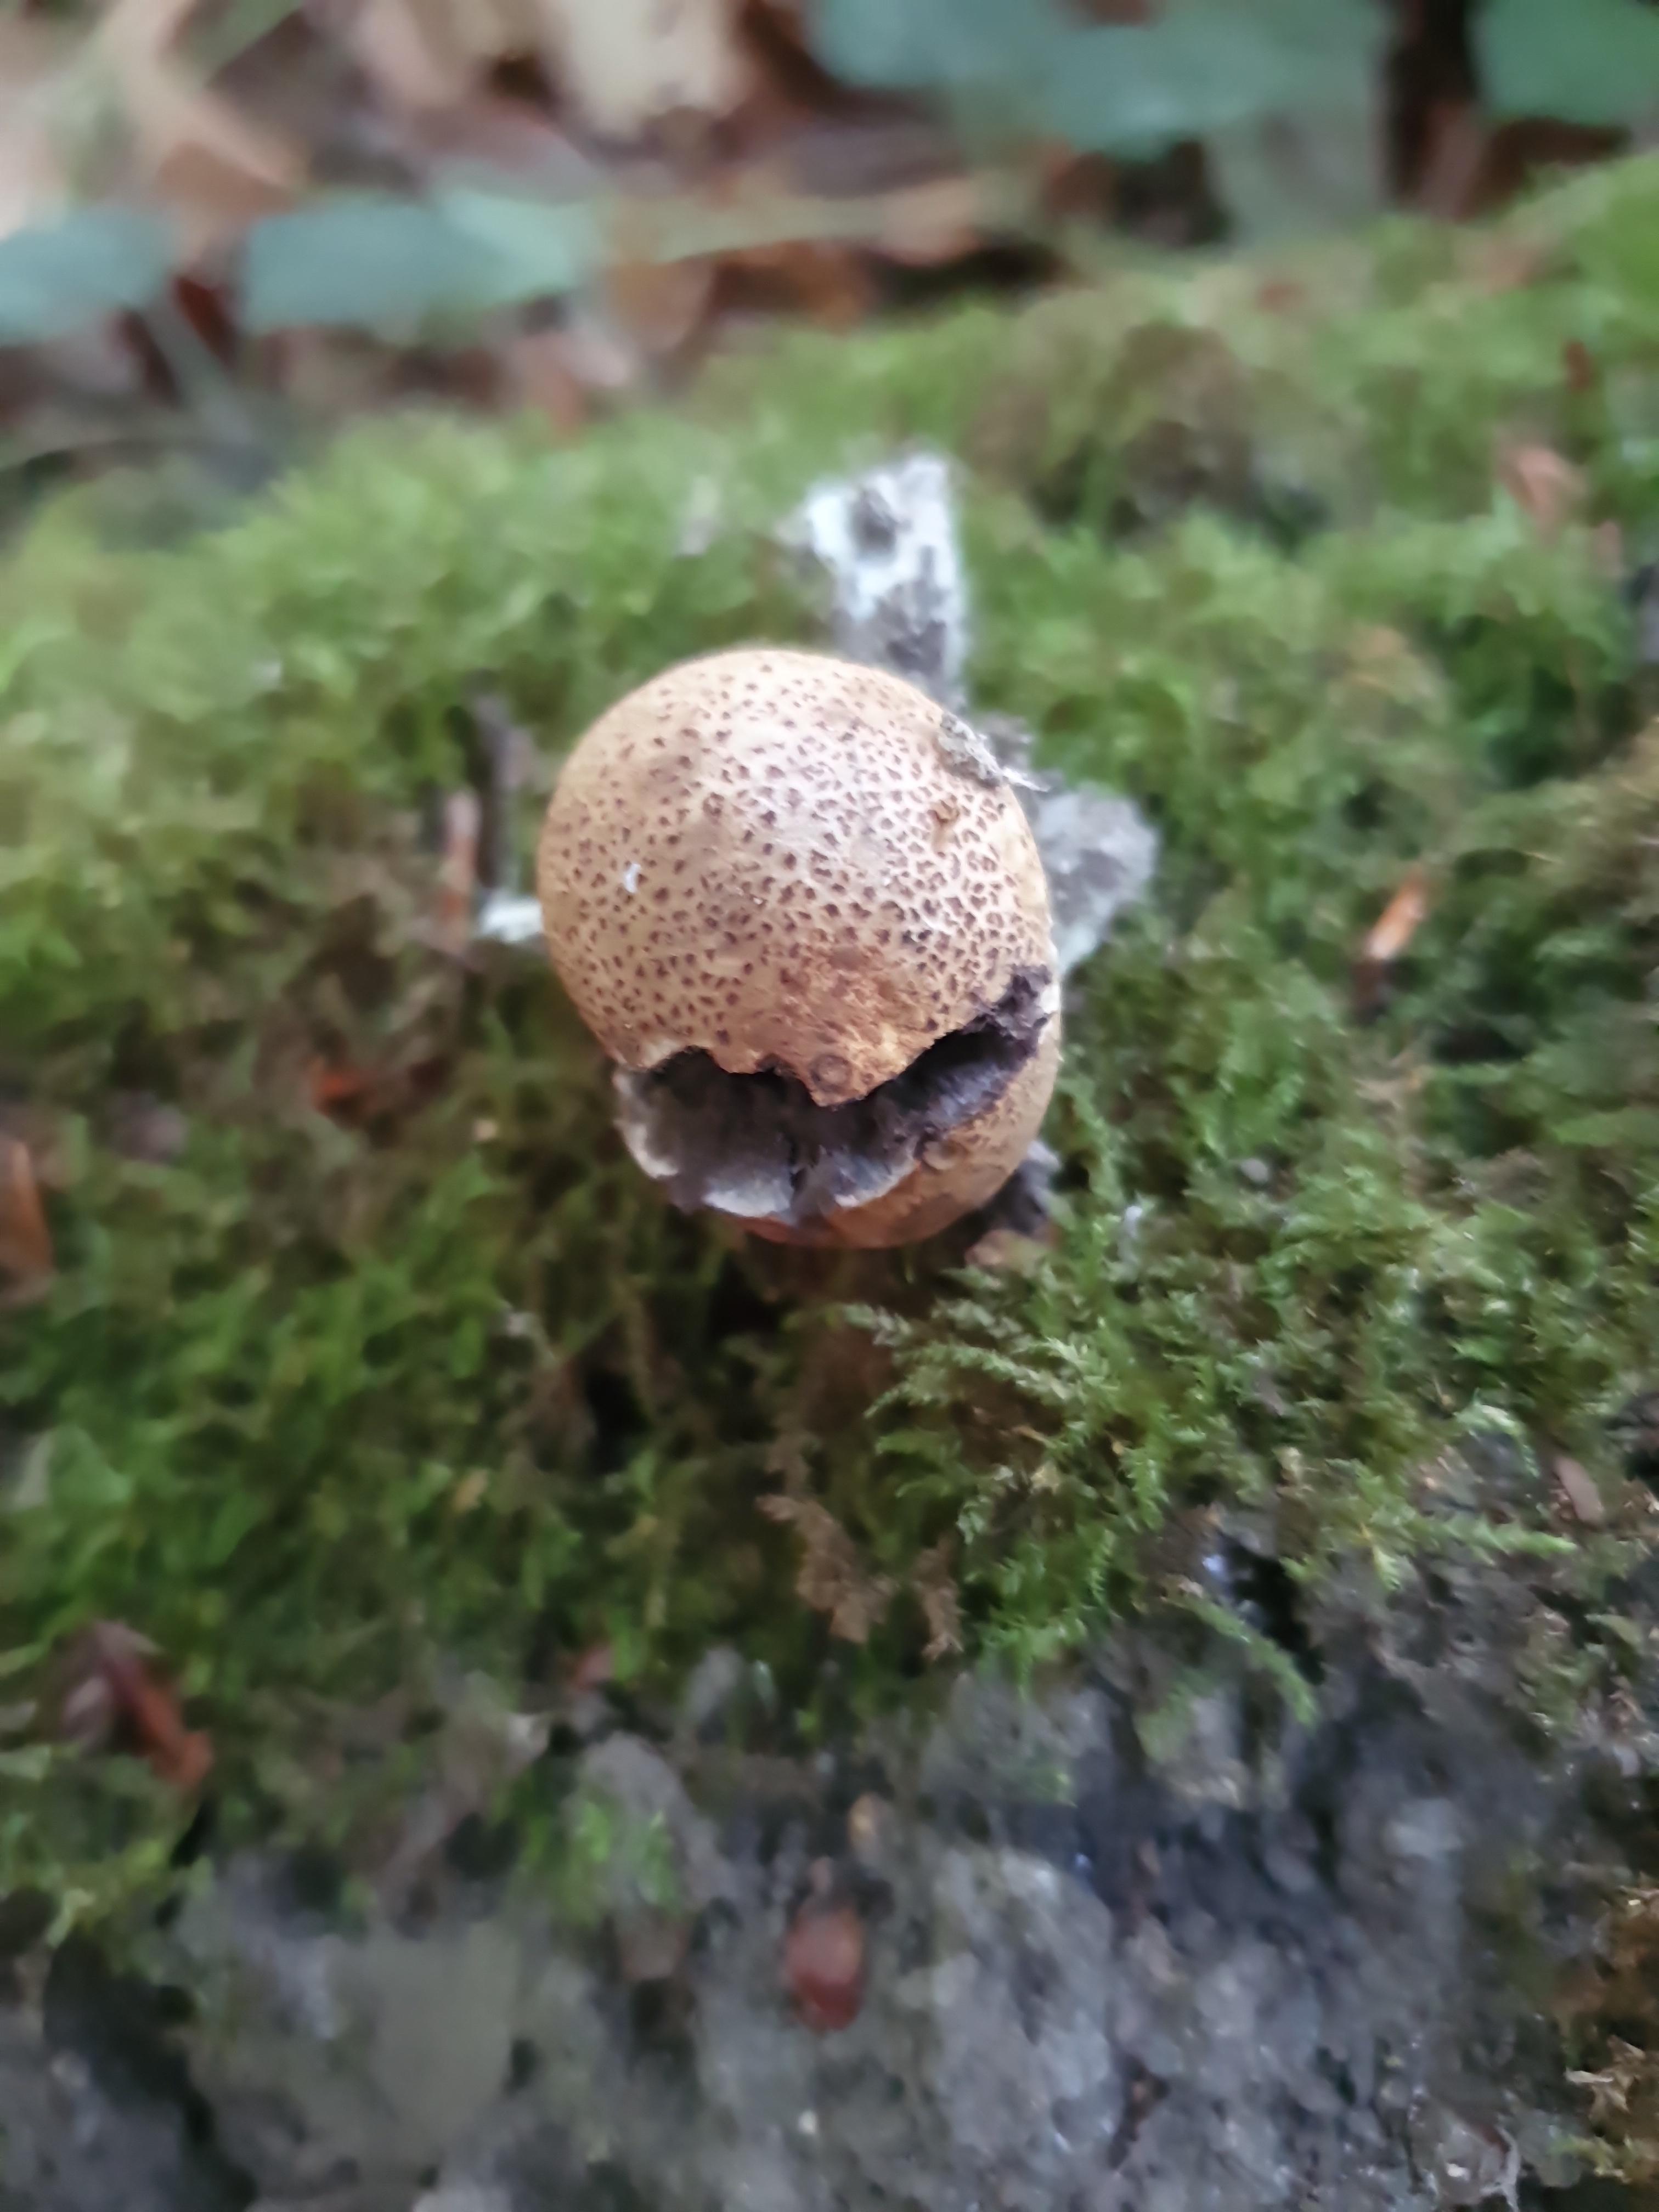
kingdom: Fungi
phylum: Basidiomycota
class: Agaricomycetes
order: Boletales
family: Sclerodermataceae
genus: Scleroderma
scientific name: Scleroderma areolatum
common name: plettet bruskbold
